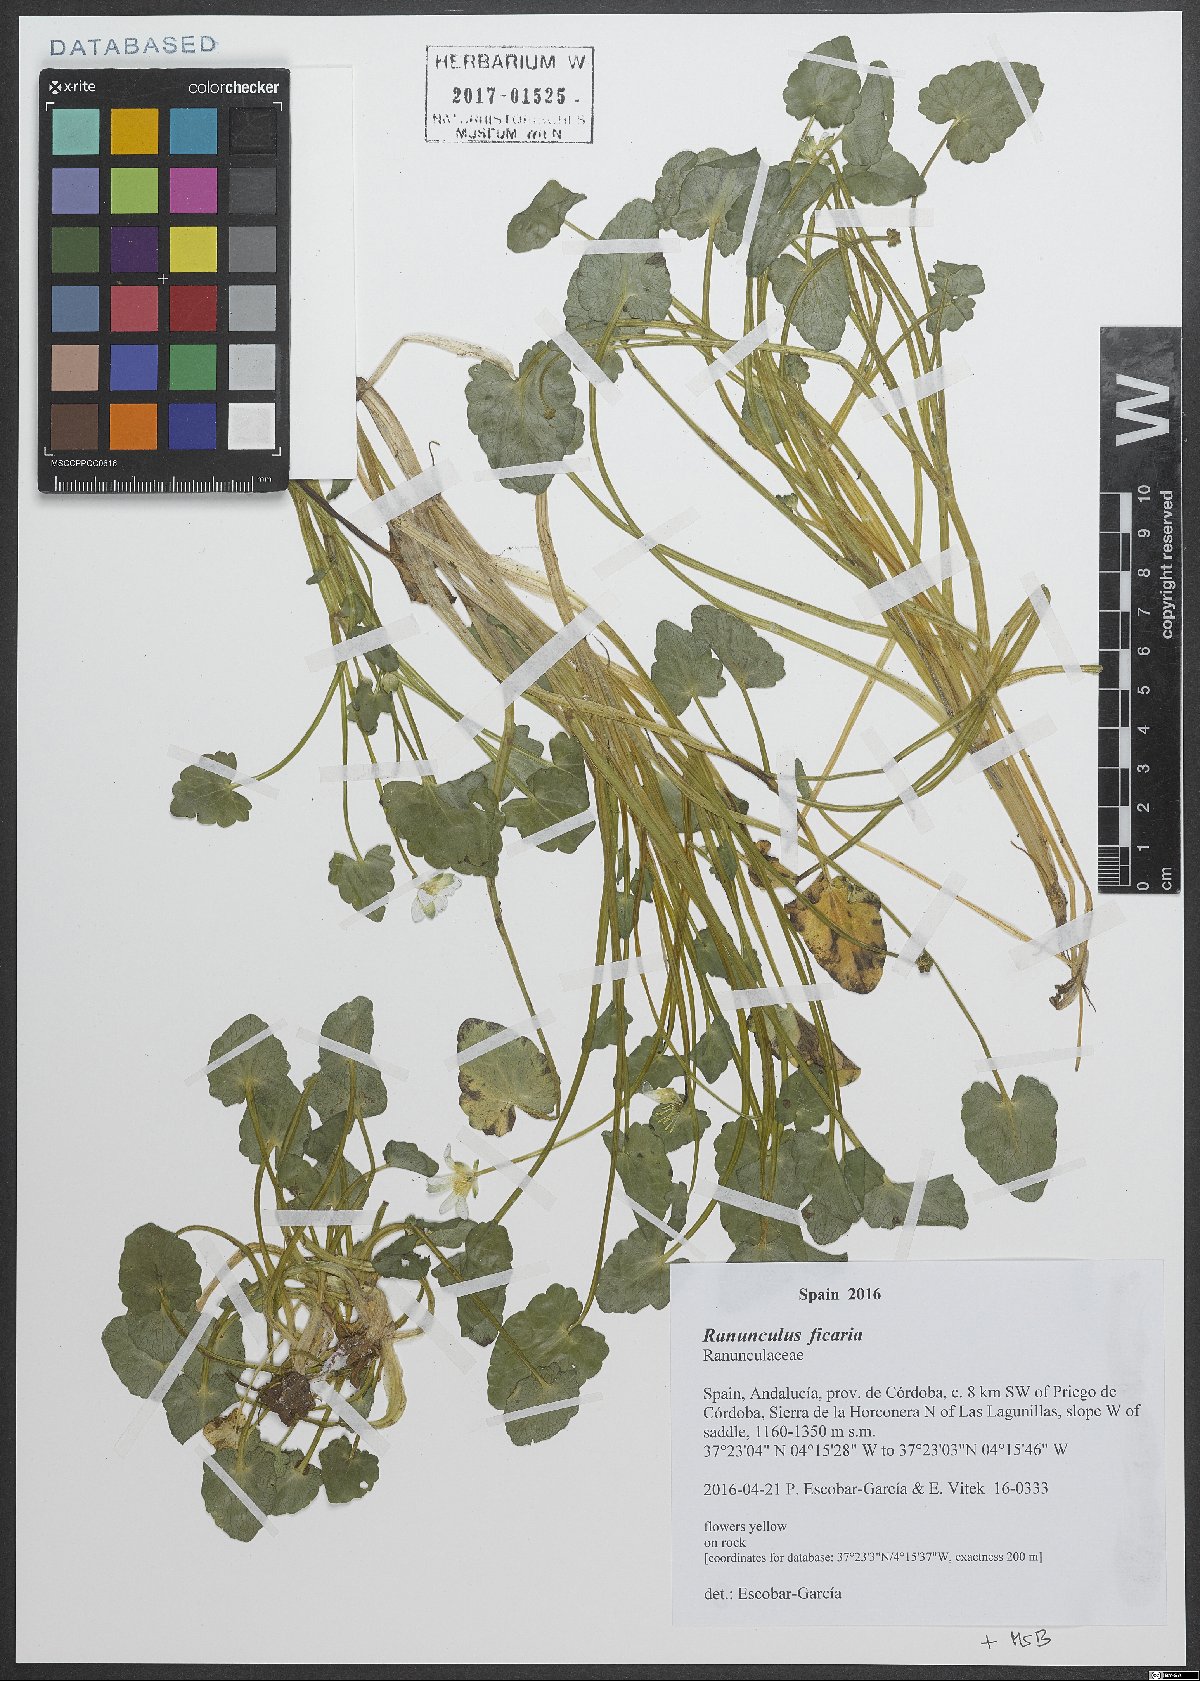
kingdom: Plantae
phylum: Tracheophyta
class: Magnoliopsida
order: Ranunculales
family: Ranunculaceae
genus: Ficaria
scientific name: Ficaria verna
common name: Lesser celandine
